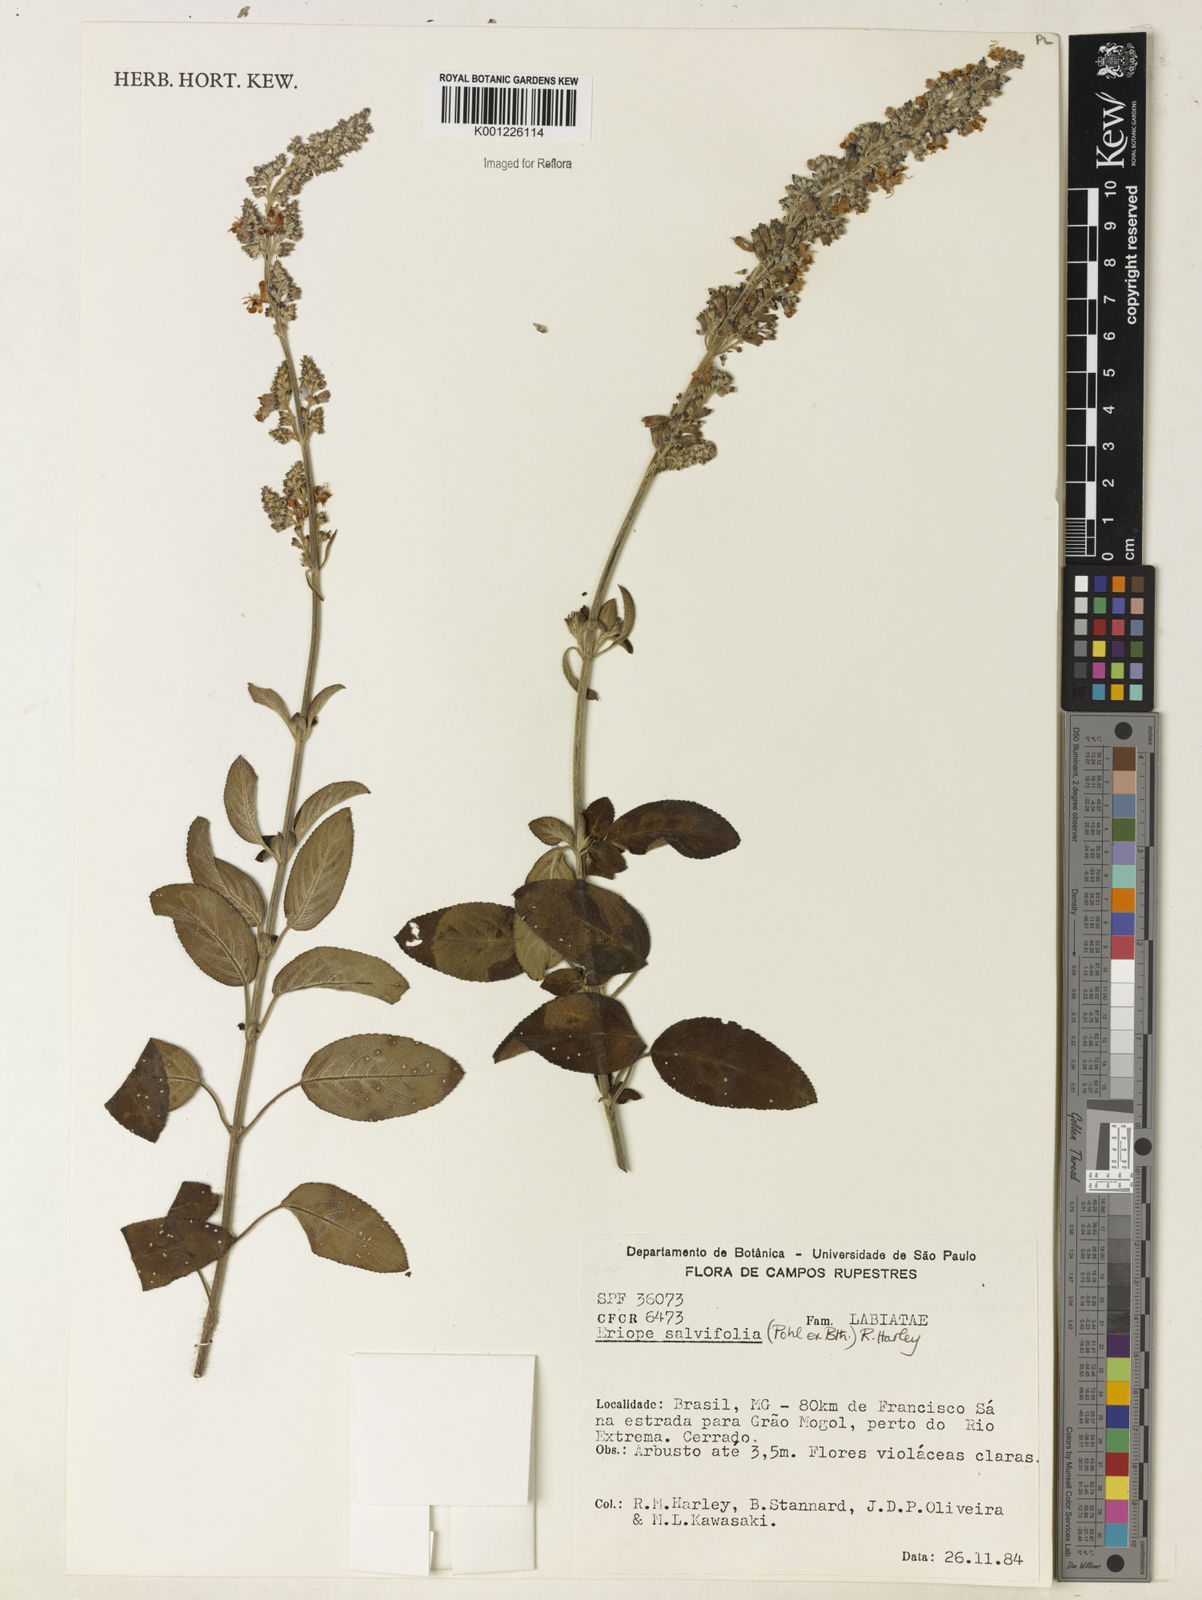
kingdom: Plantae
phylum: Tracheophyta
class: Magnoliopsida
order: Lamiales
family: Lamiaceae
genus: Eriope
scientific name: Eriope salviifolia
